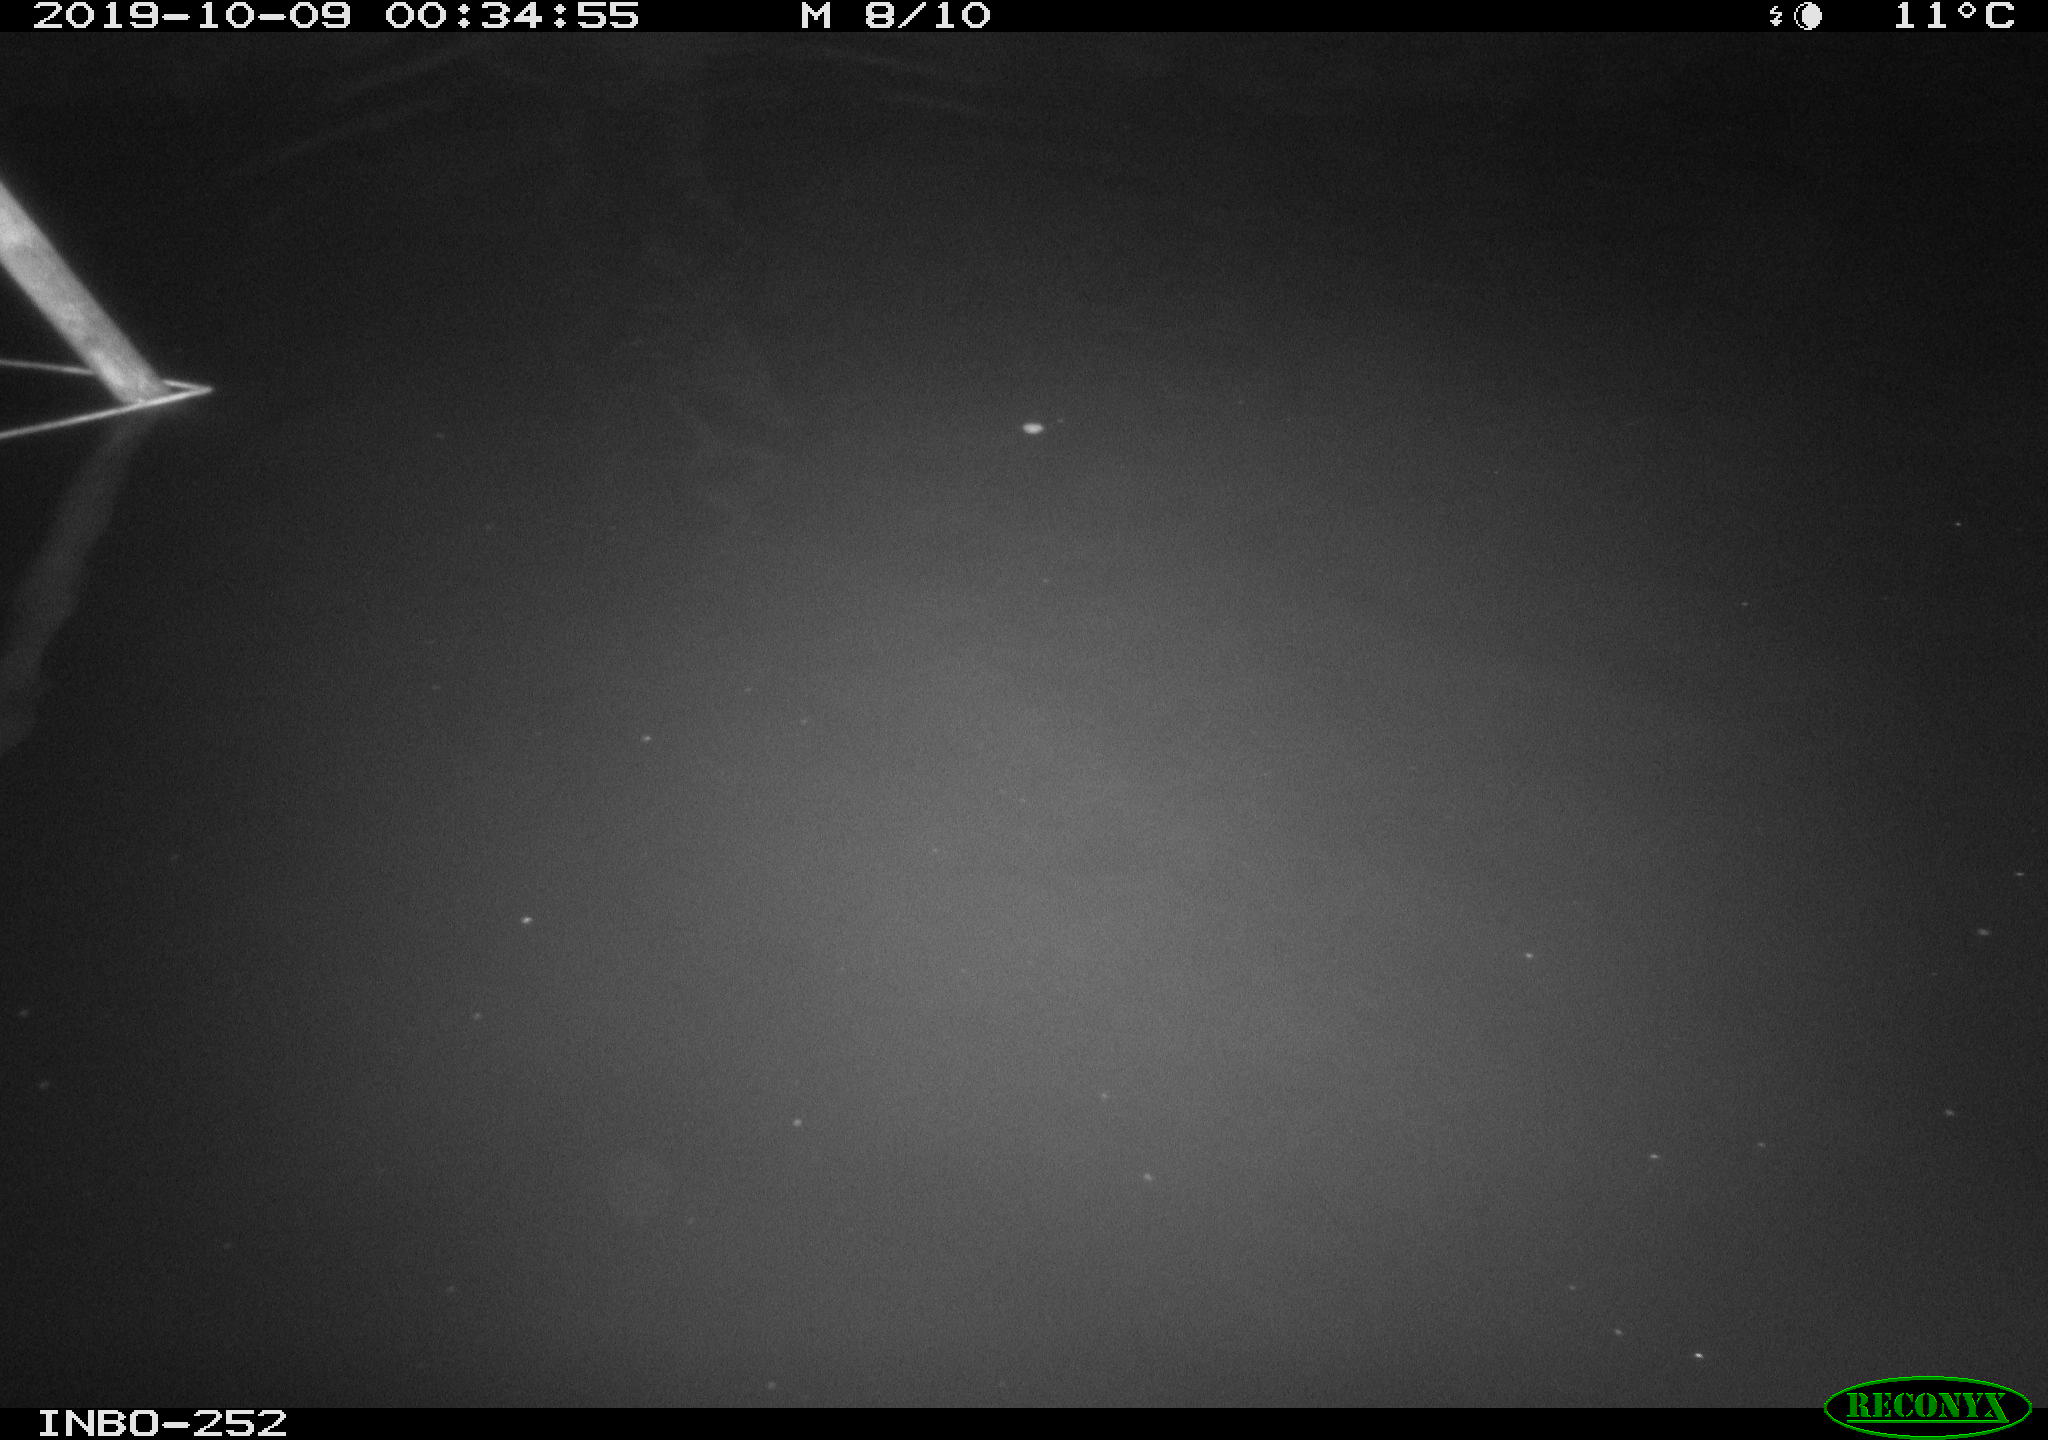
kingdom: Animalia
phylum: Chordata
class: Mammalia
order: Rodentia
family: Muridae
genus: Rattus
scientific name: Rattus norvegicus
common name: Brown rat
